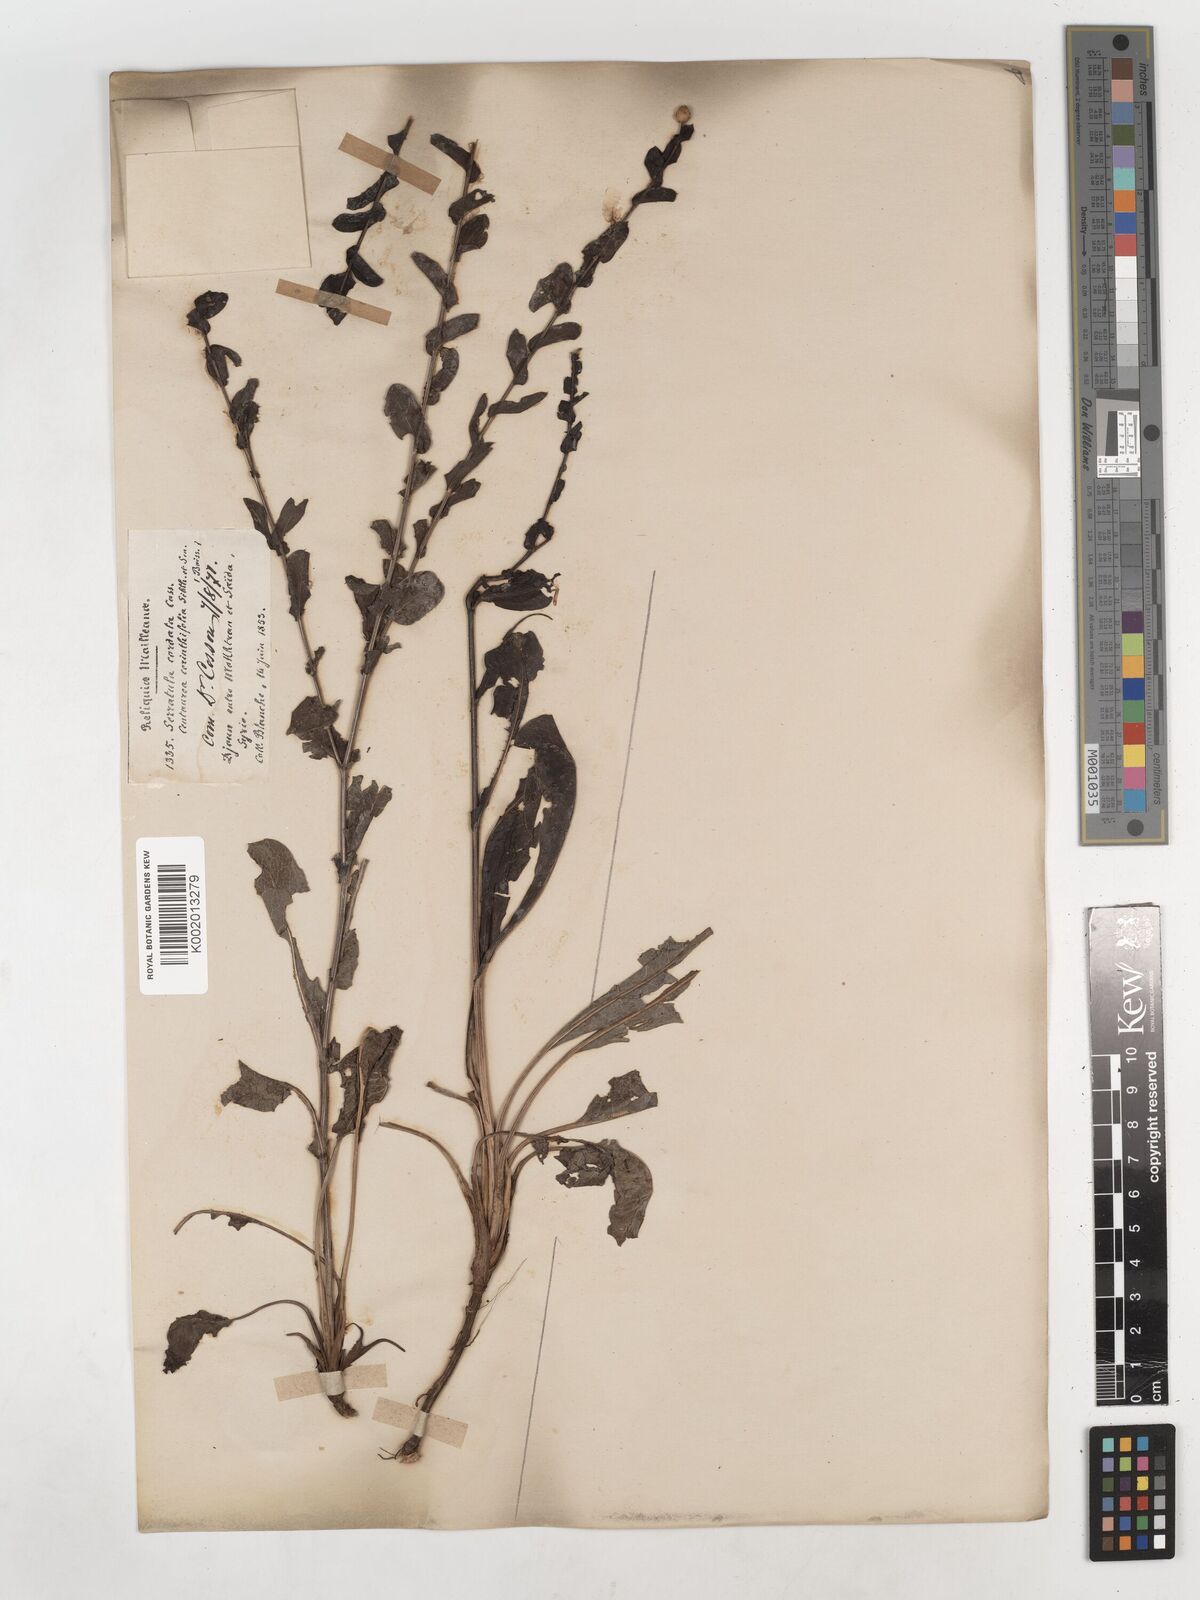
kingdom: Plantae
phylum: Tracheophyta
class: Magnoliopsida
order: Asterales
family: Asteraceae
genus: Klasea
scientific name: Klasea cerinthifolia
